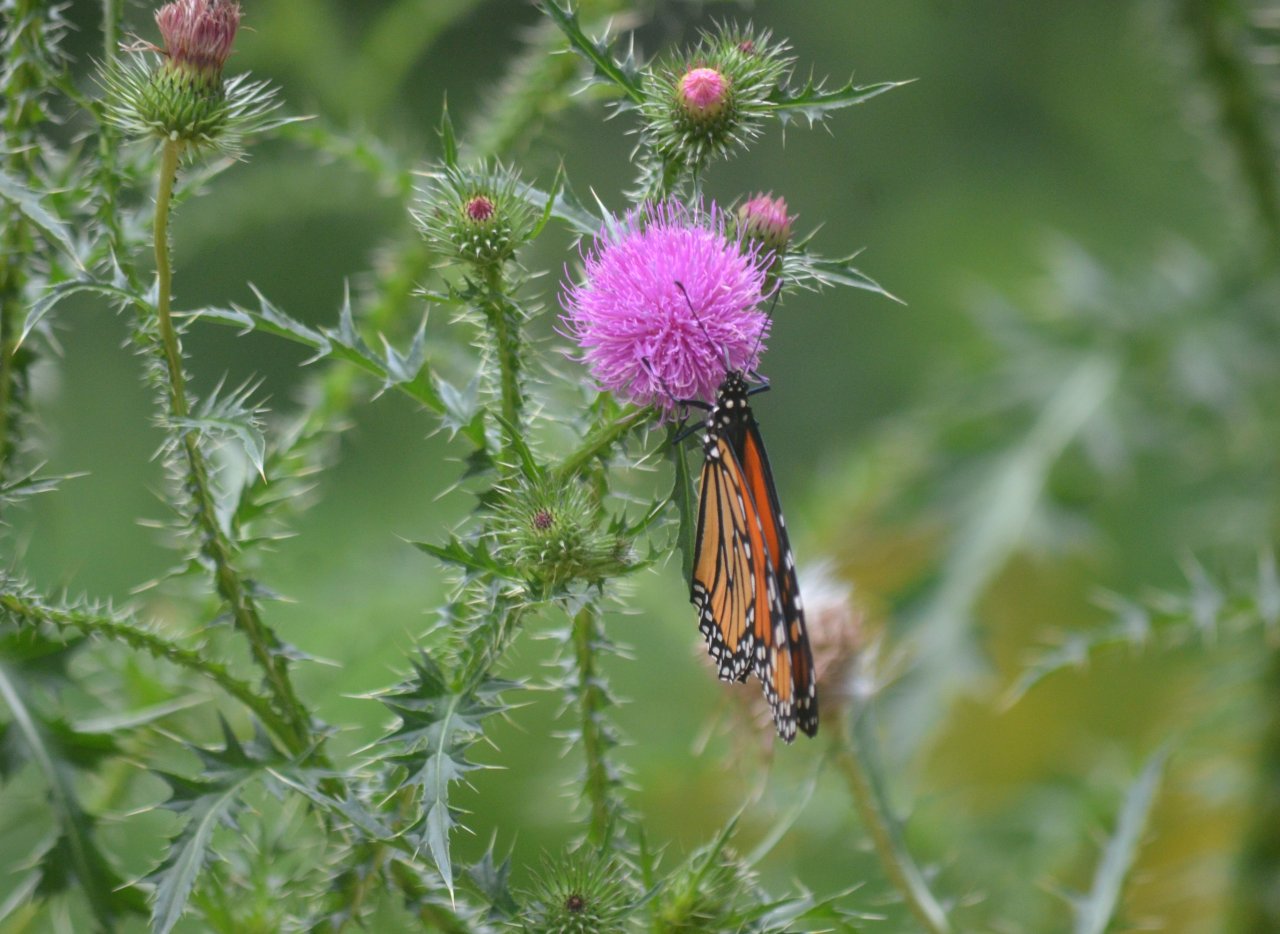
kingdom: Animalia
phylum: Arthropoda
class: Insecta
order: Lepidoptera
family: Nymphalidae
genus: Danaus
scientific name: Danaus plexippus
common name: Monarch
